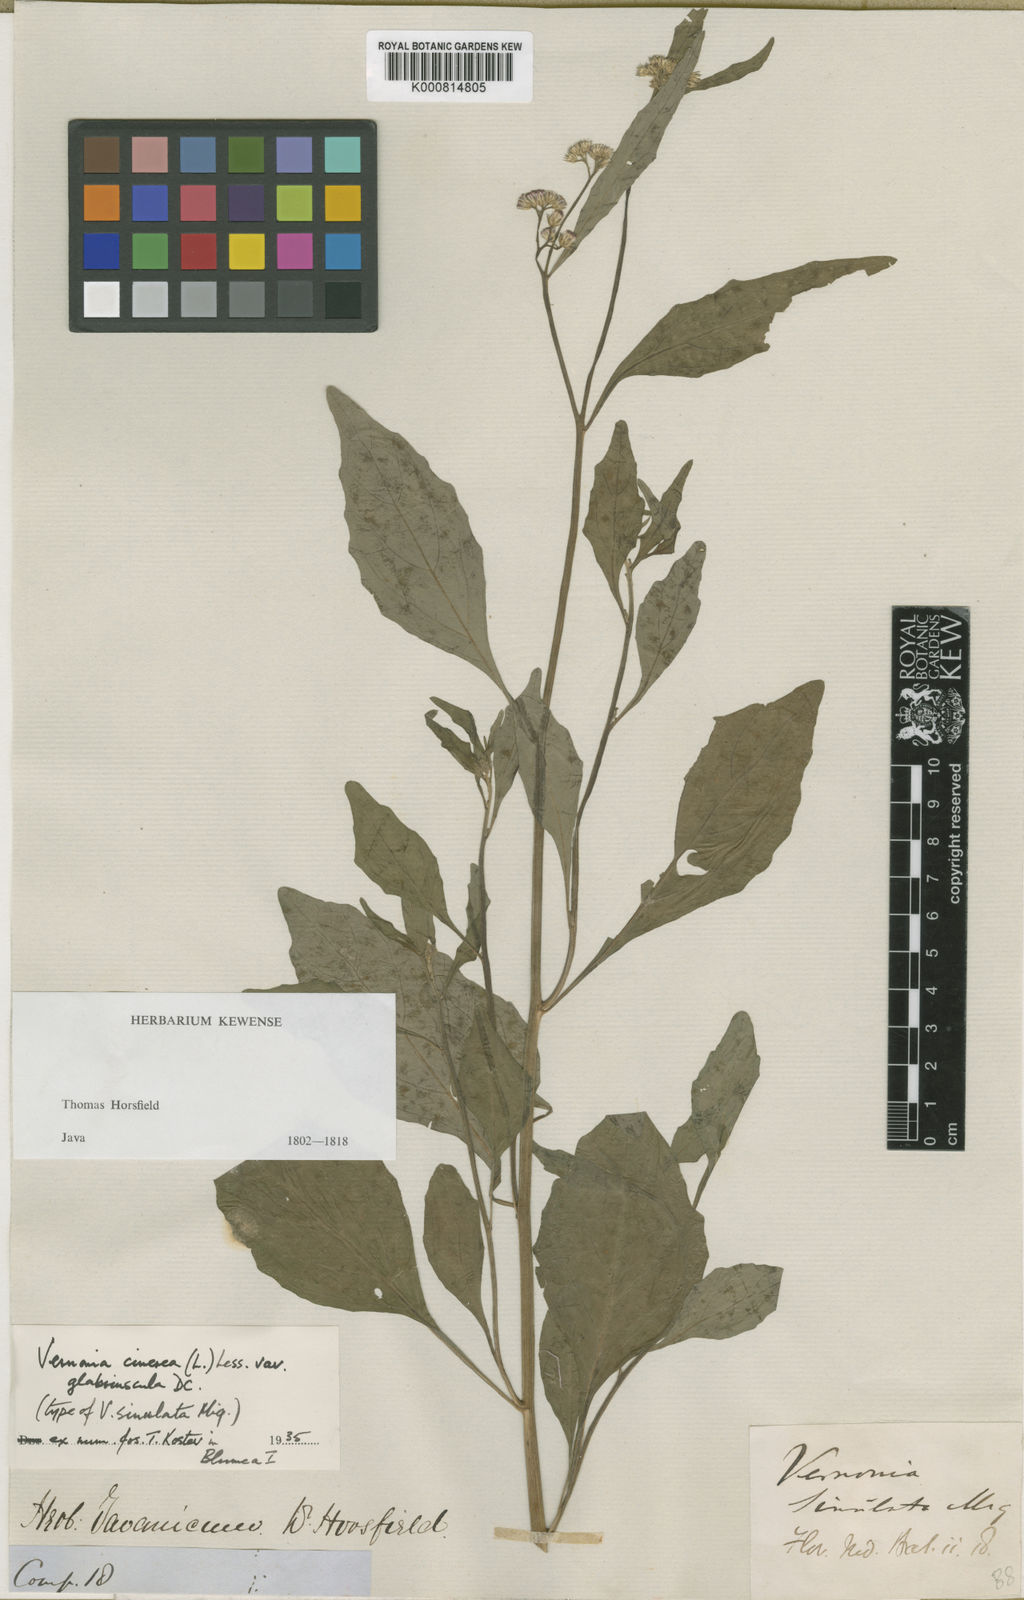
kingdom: Plantae
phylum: Tracheophyta
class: Magnoliopsida
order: Asterales
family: Asteraceae
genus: Cyanthillium
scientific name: Cyanthillium cinereum
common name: Little ironweed
